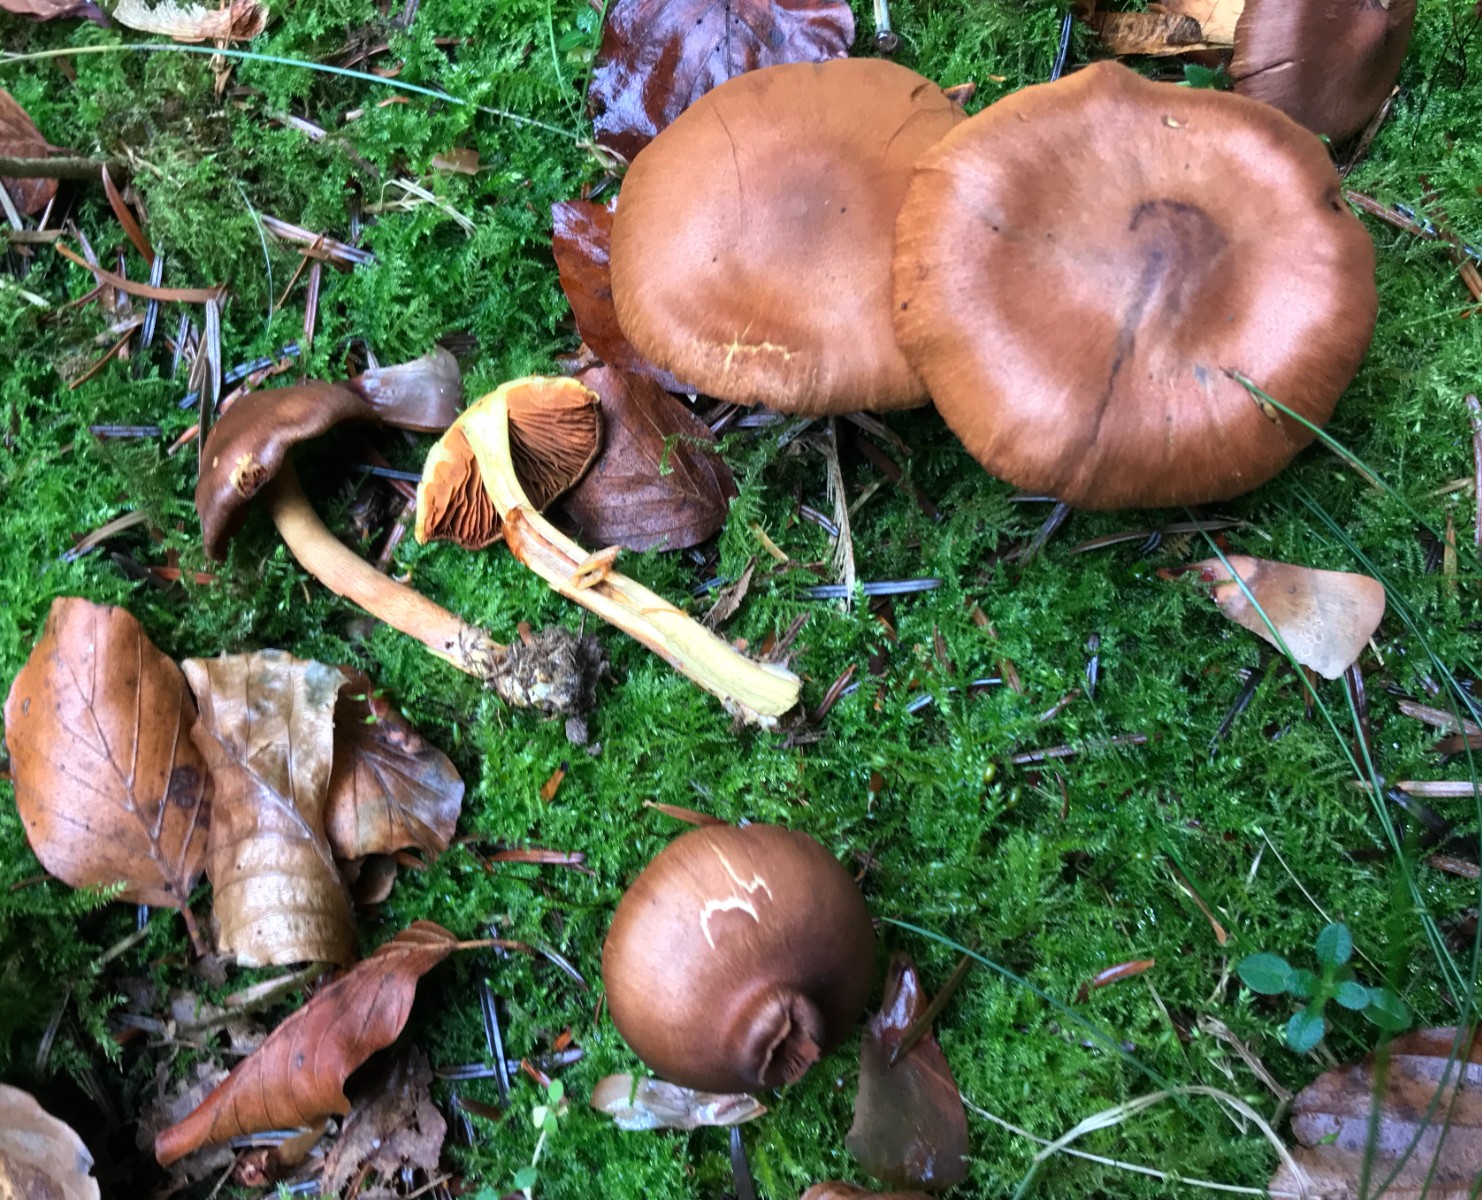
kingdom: Fungi
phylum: Basidiomycota
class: Agaricomycetes
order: Agaricales
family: Cortinariaceae
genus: Cortinarius
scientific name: Cortinarius malicorius
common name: grønkødet slørhat
